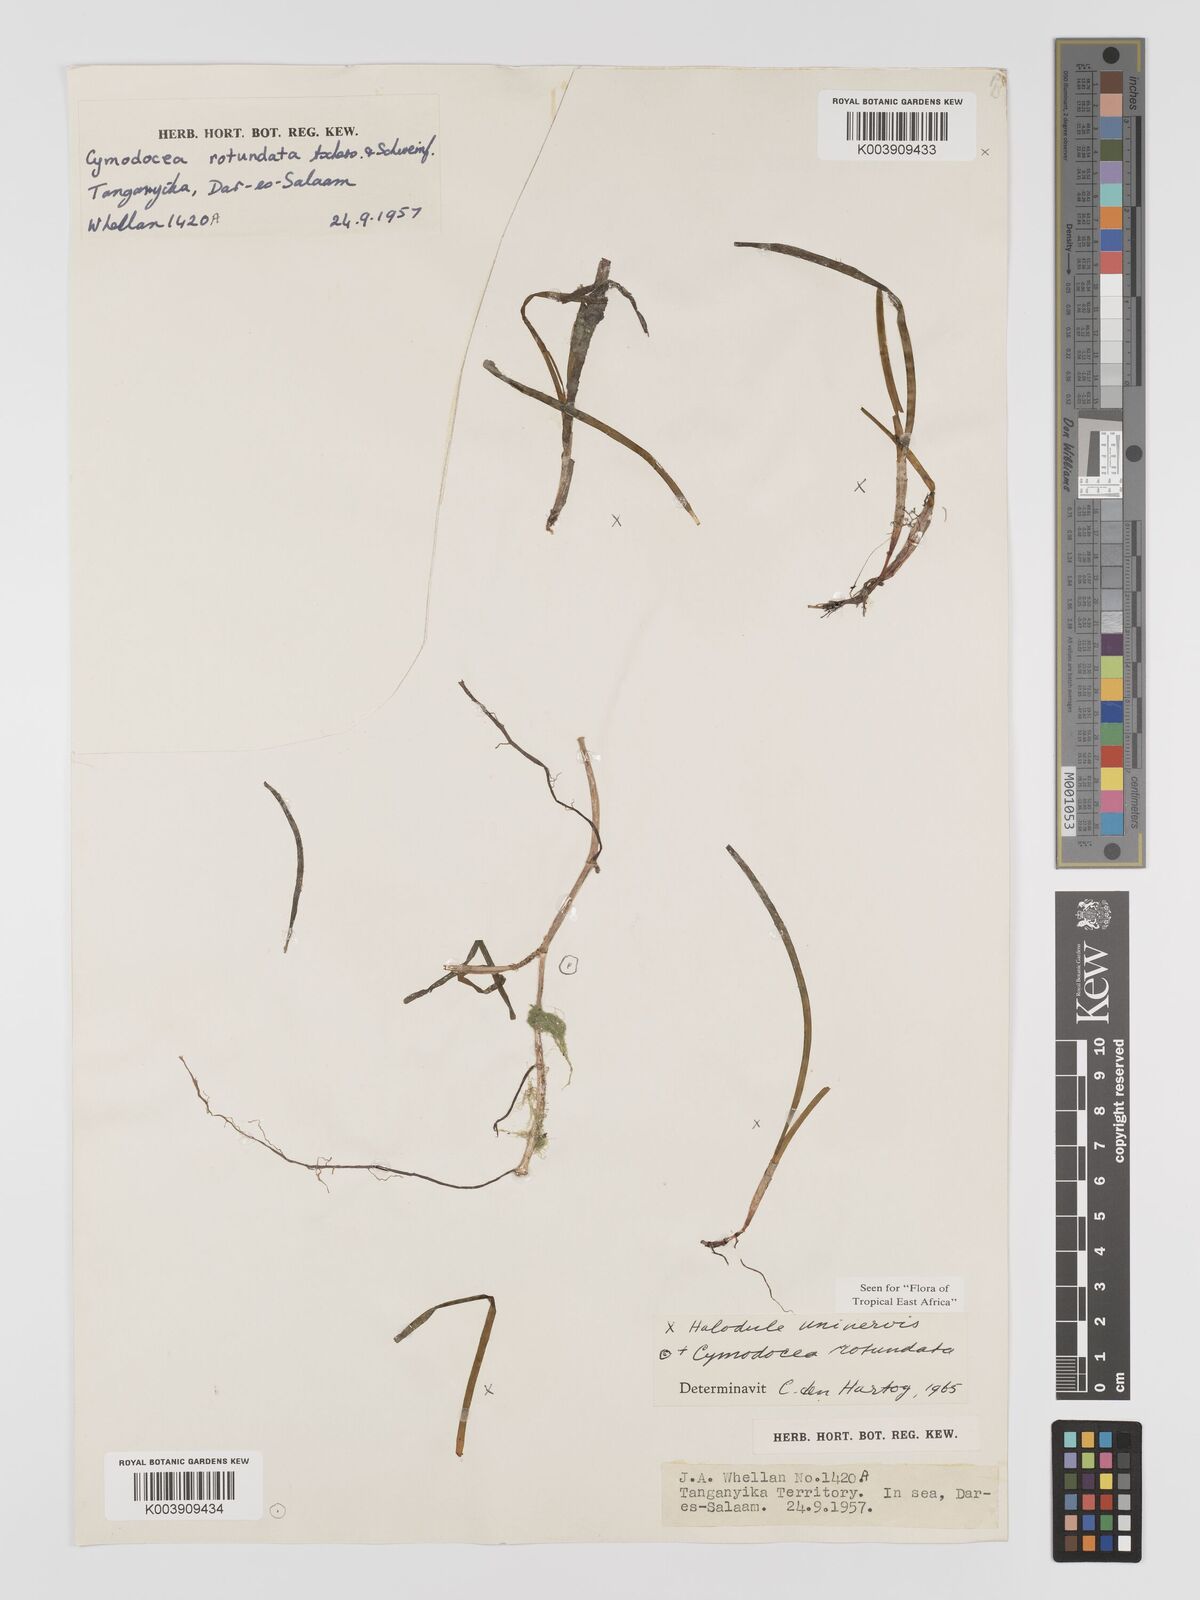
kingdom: Plantae
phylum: Tracheophyta
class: Liliopsida
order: Alismatales
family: Cymodoceaceae
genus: Cymodocea
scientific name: Cymodocea rotundata
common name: Species code: cr
